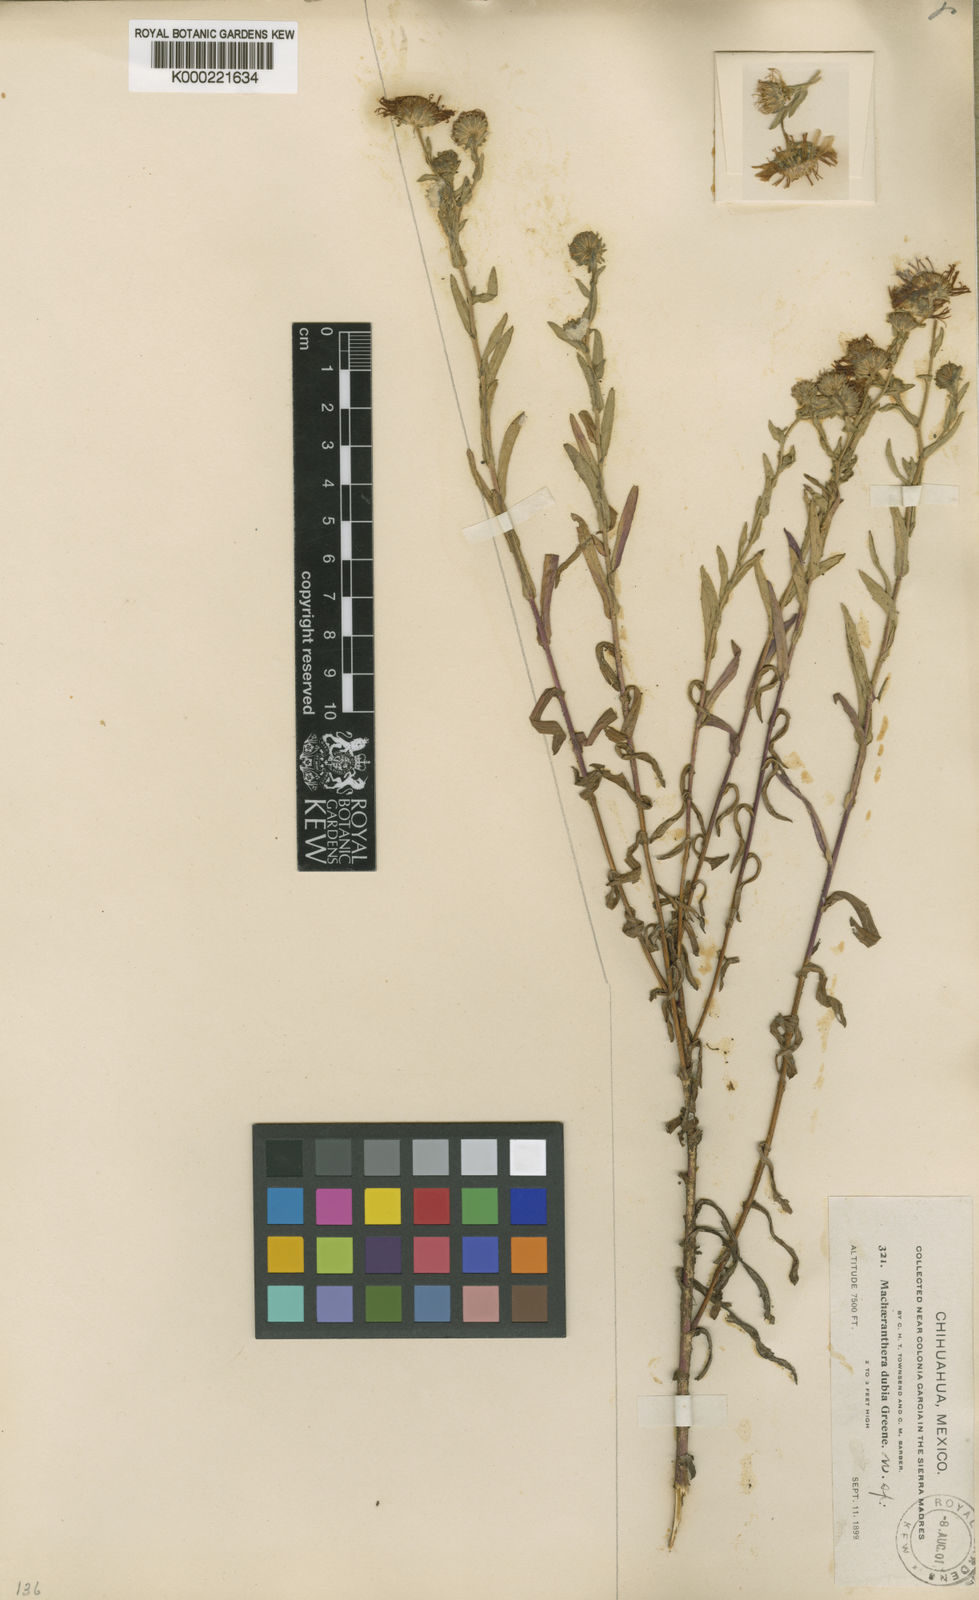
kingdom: Plantae
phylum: Tracheophyta
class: Magnoliopsida
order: Asterales
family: Asteraceae
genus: Aster
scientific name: Aster
